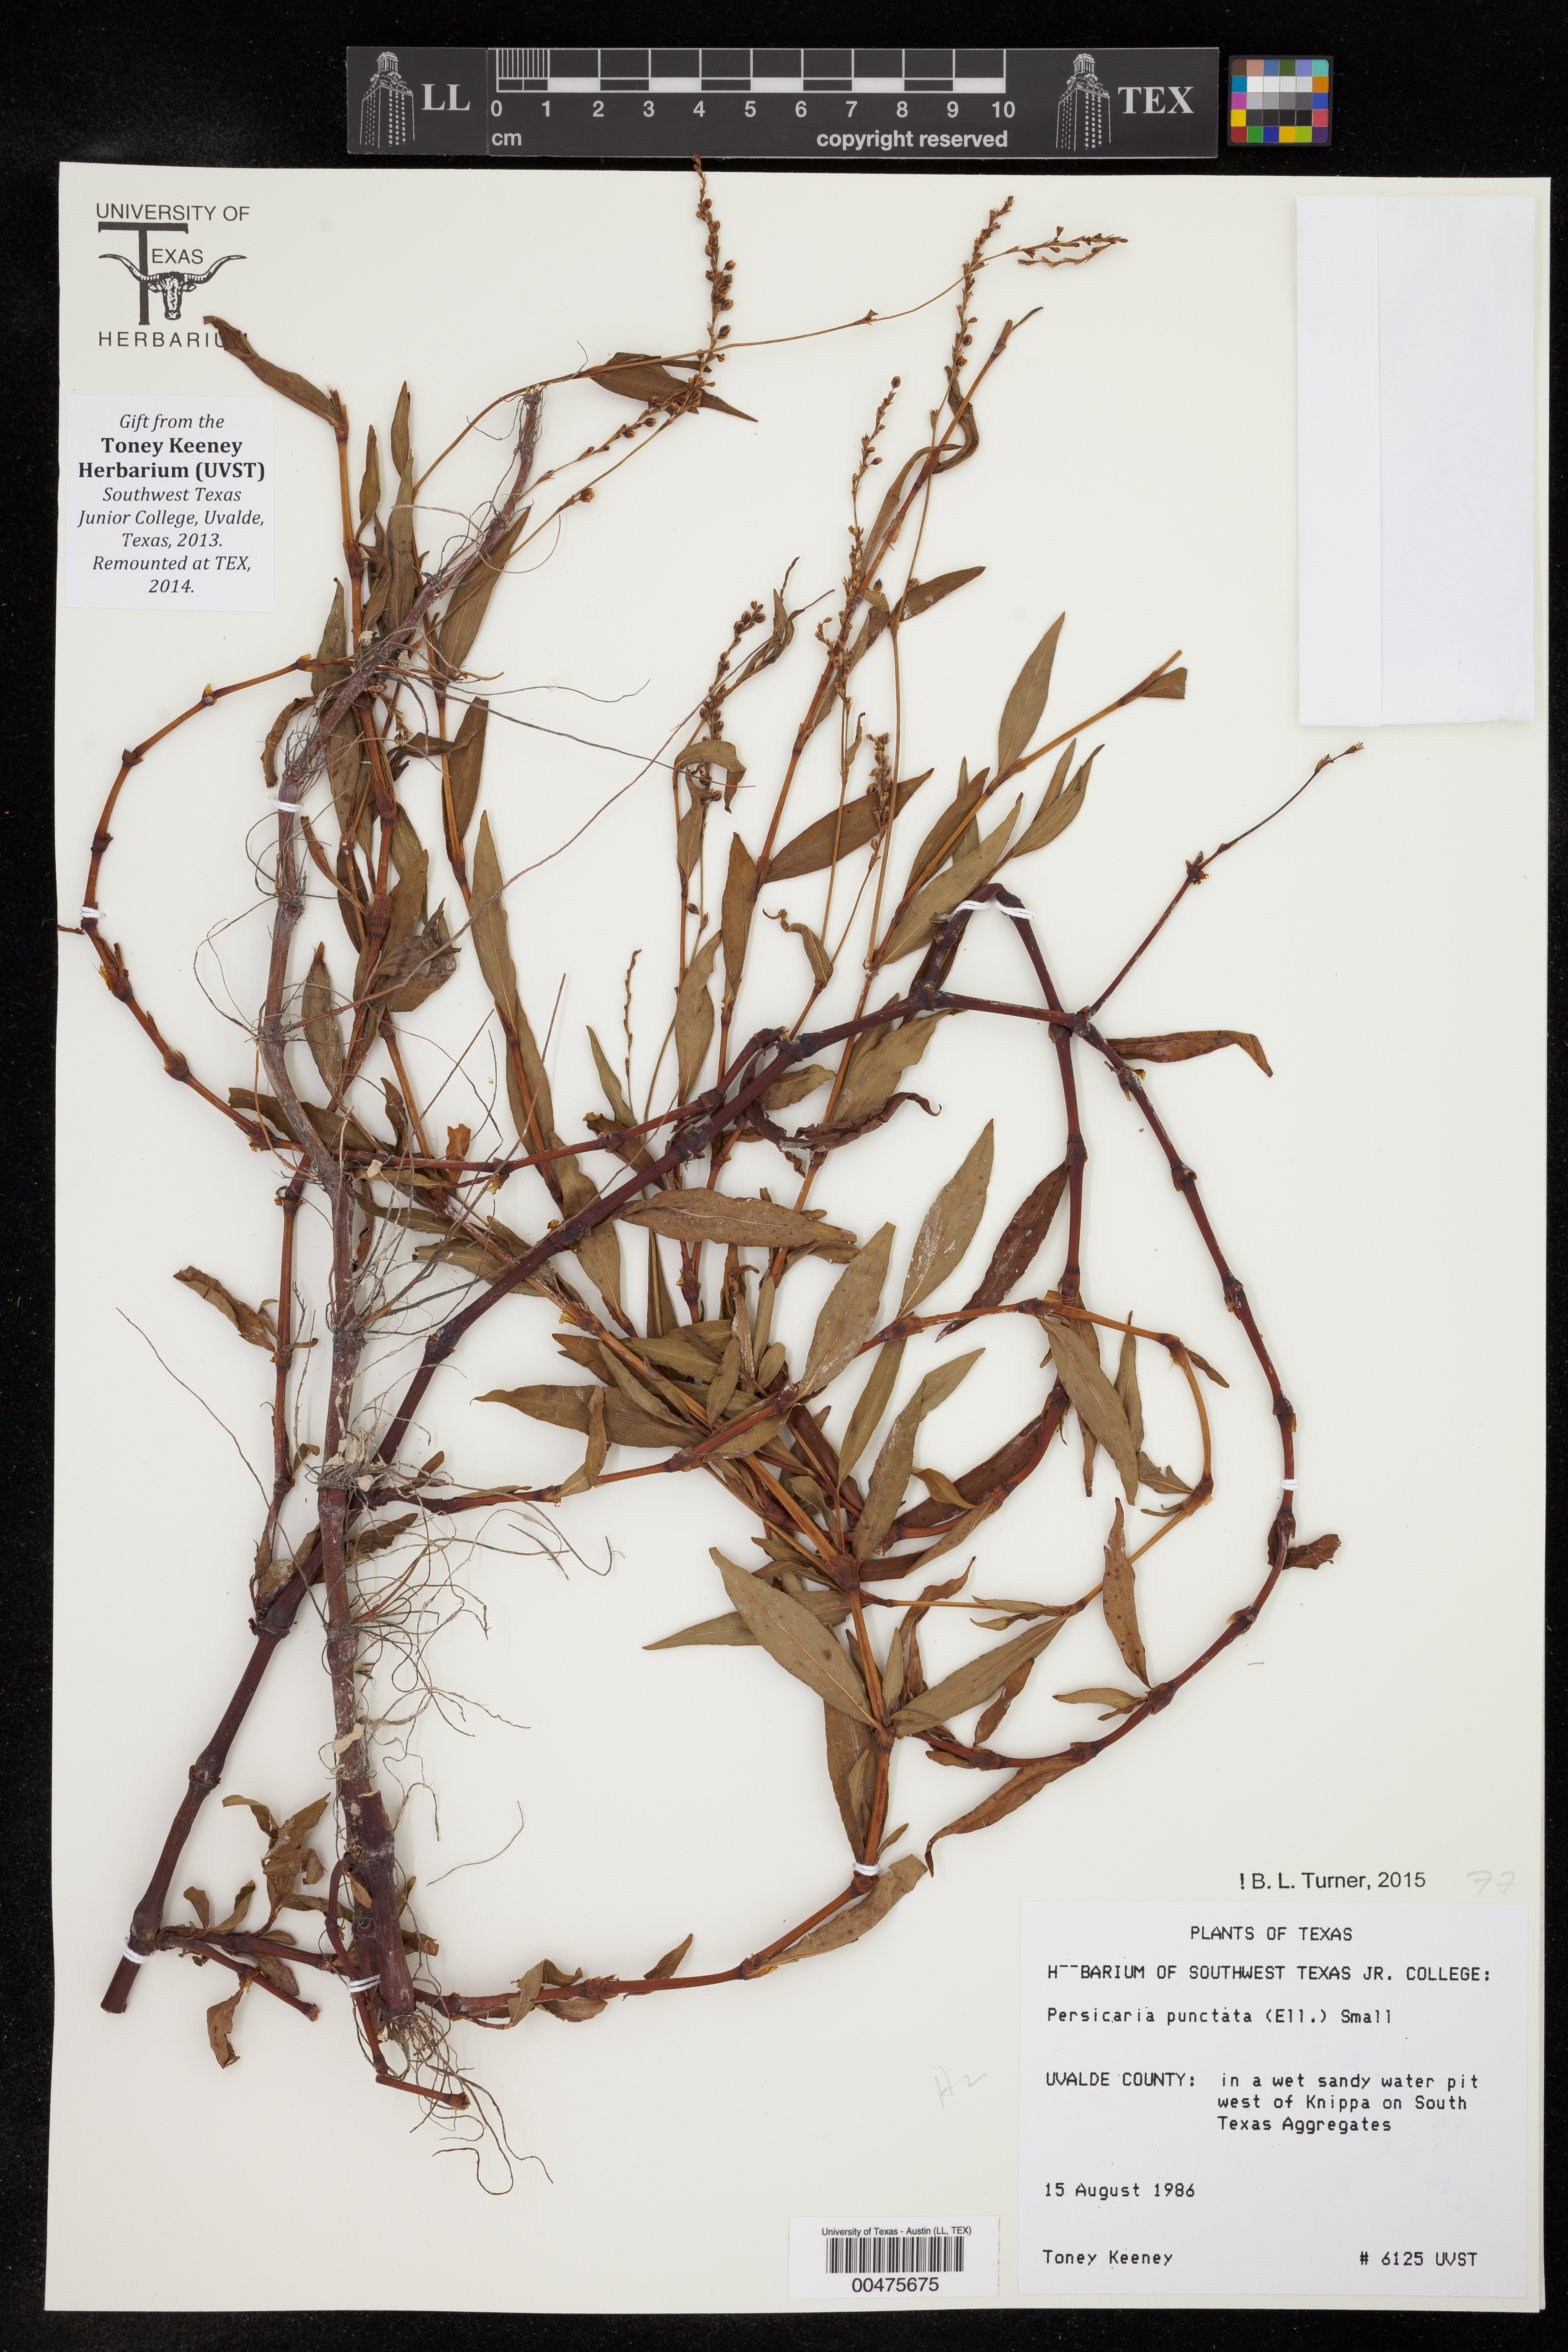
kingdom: Plantae
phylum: Tracheophyta
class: Magnoliopsida
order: Caryophyllales
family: Polygonaceae
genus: Persicaria
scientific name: Persicaria punctata
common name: Dotted smartweed
